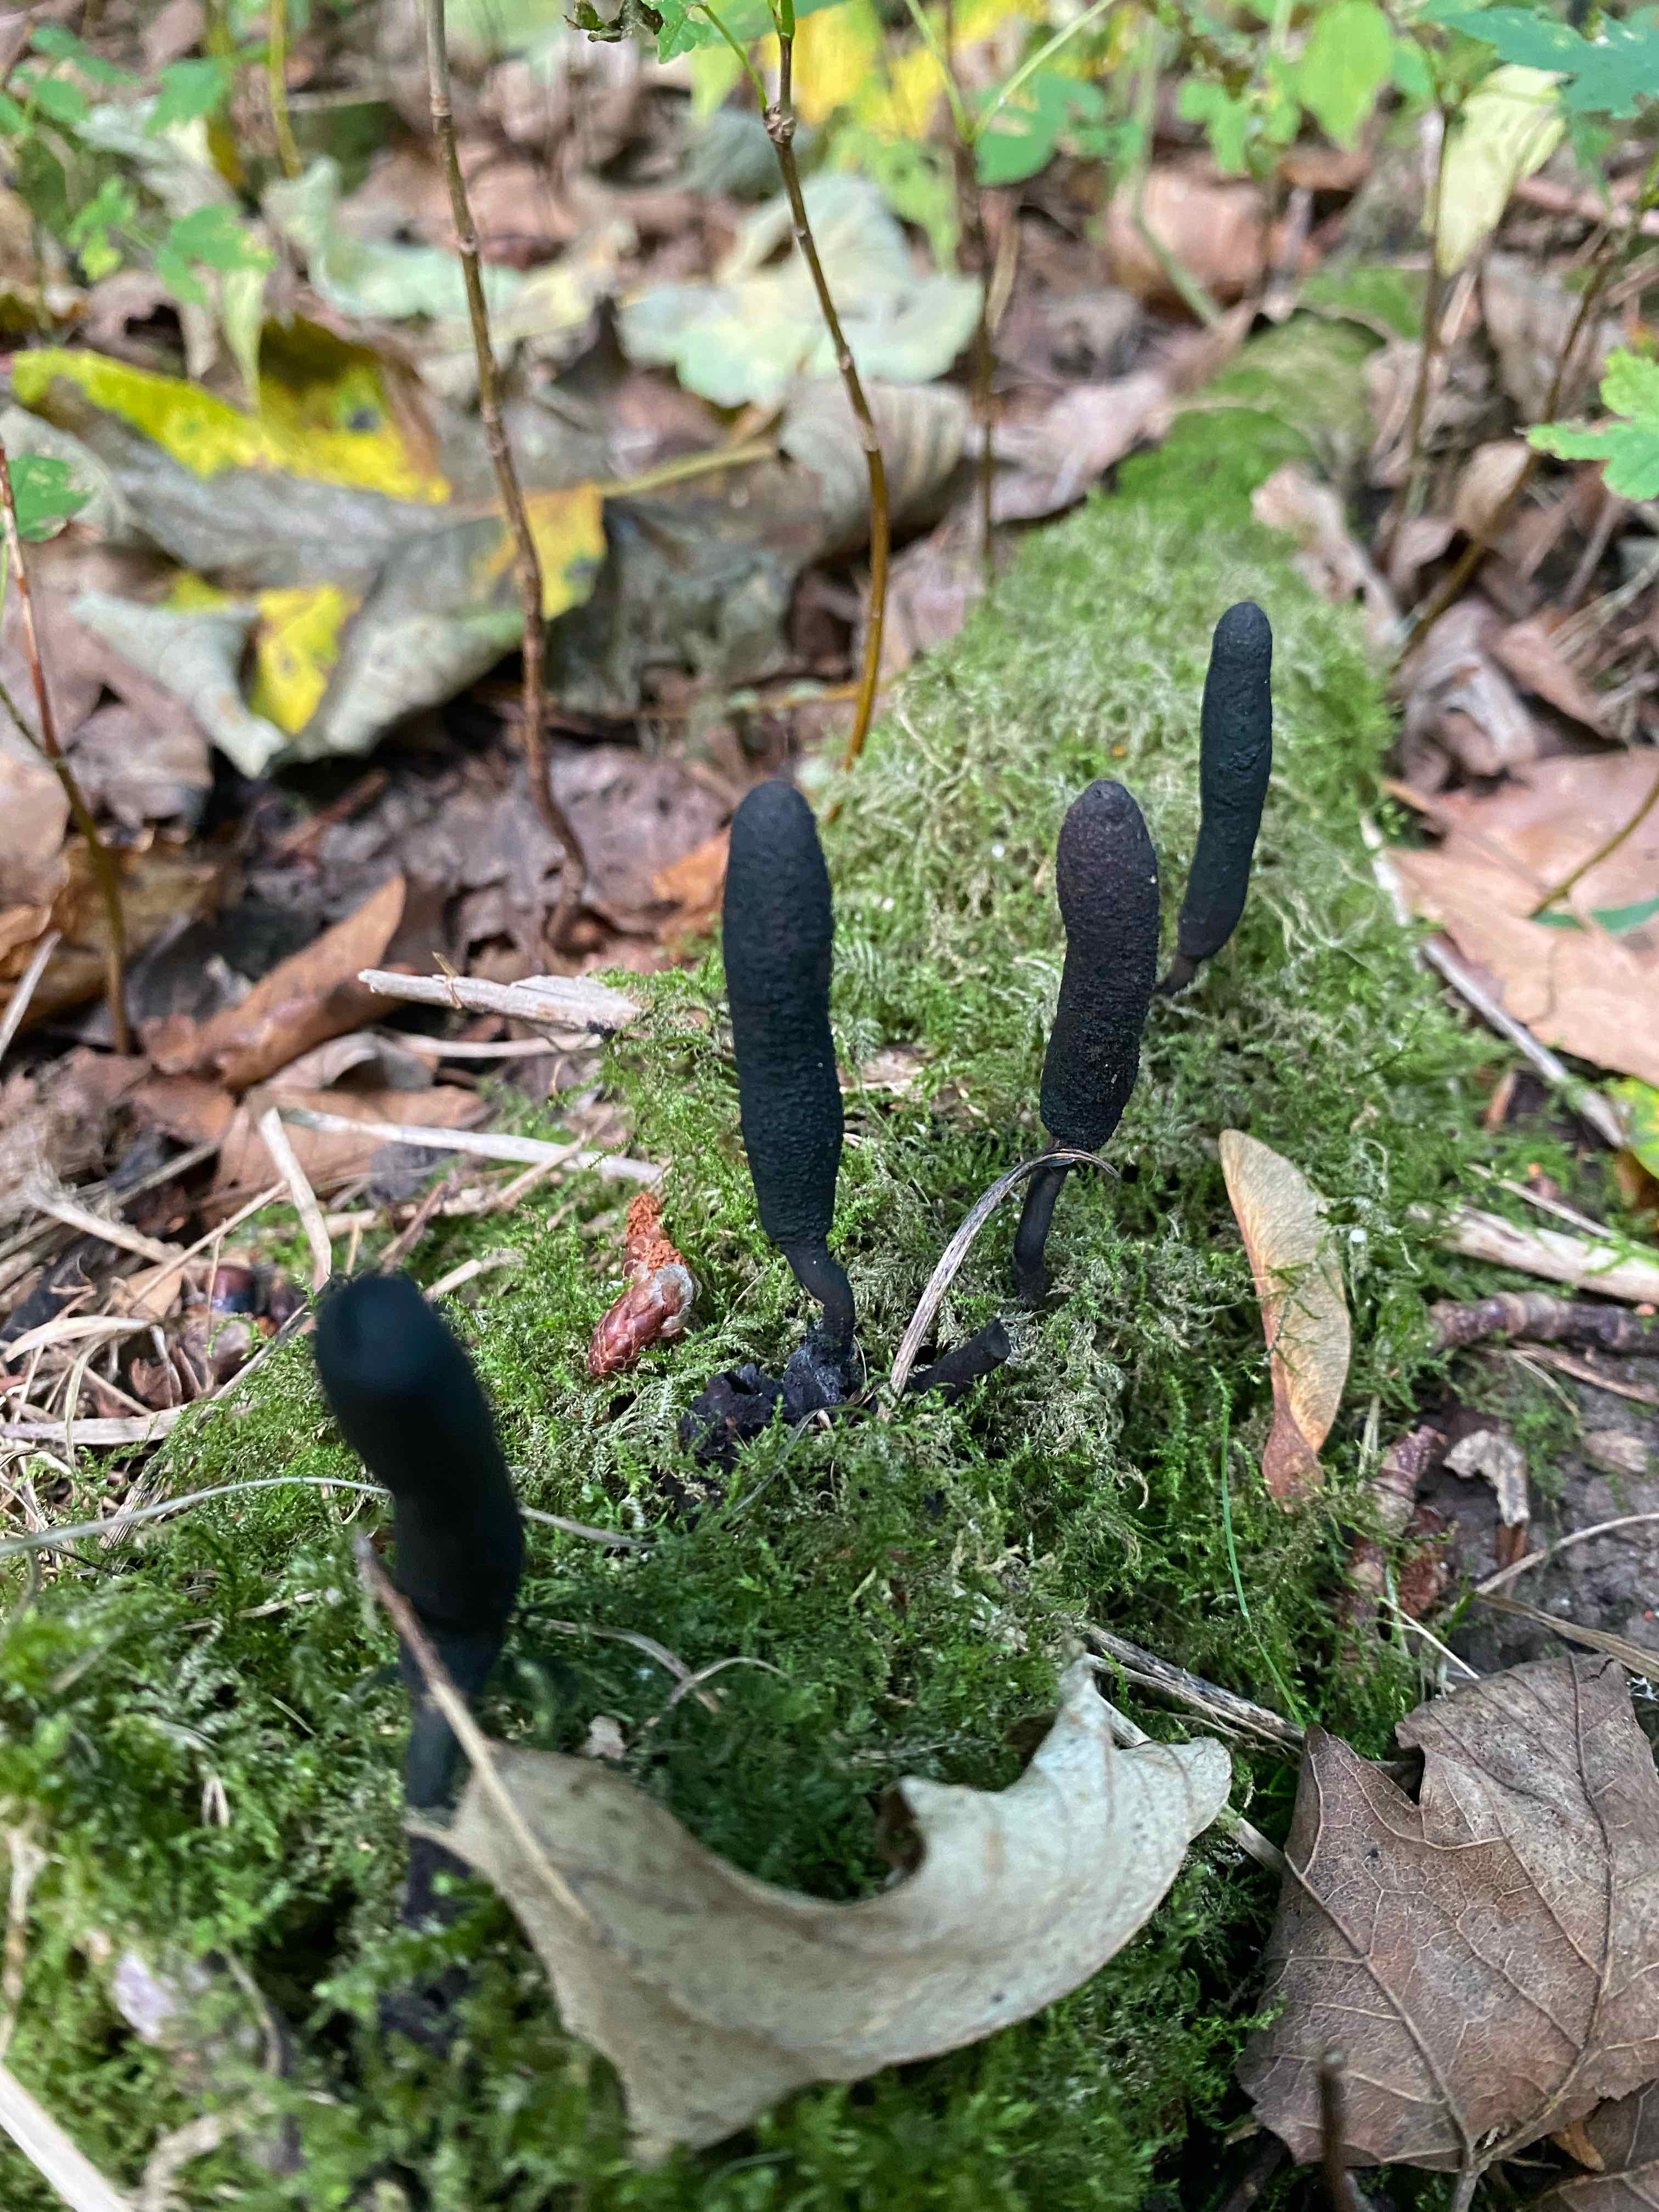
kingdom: Fungi
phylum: Ascomycota
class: Sordariomycetes
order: Xylariales
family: Xylariaceae
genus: Xylaria
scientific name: Xylaria longipes
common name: slank stødsvamp
